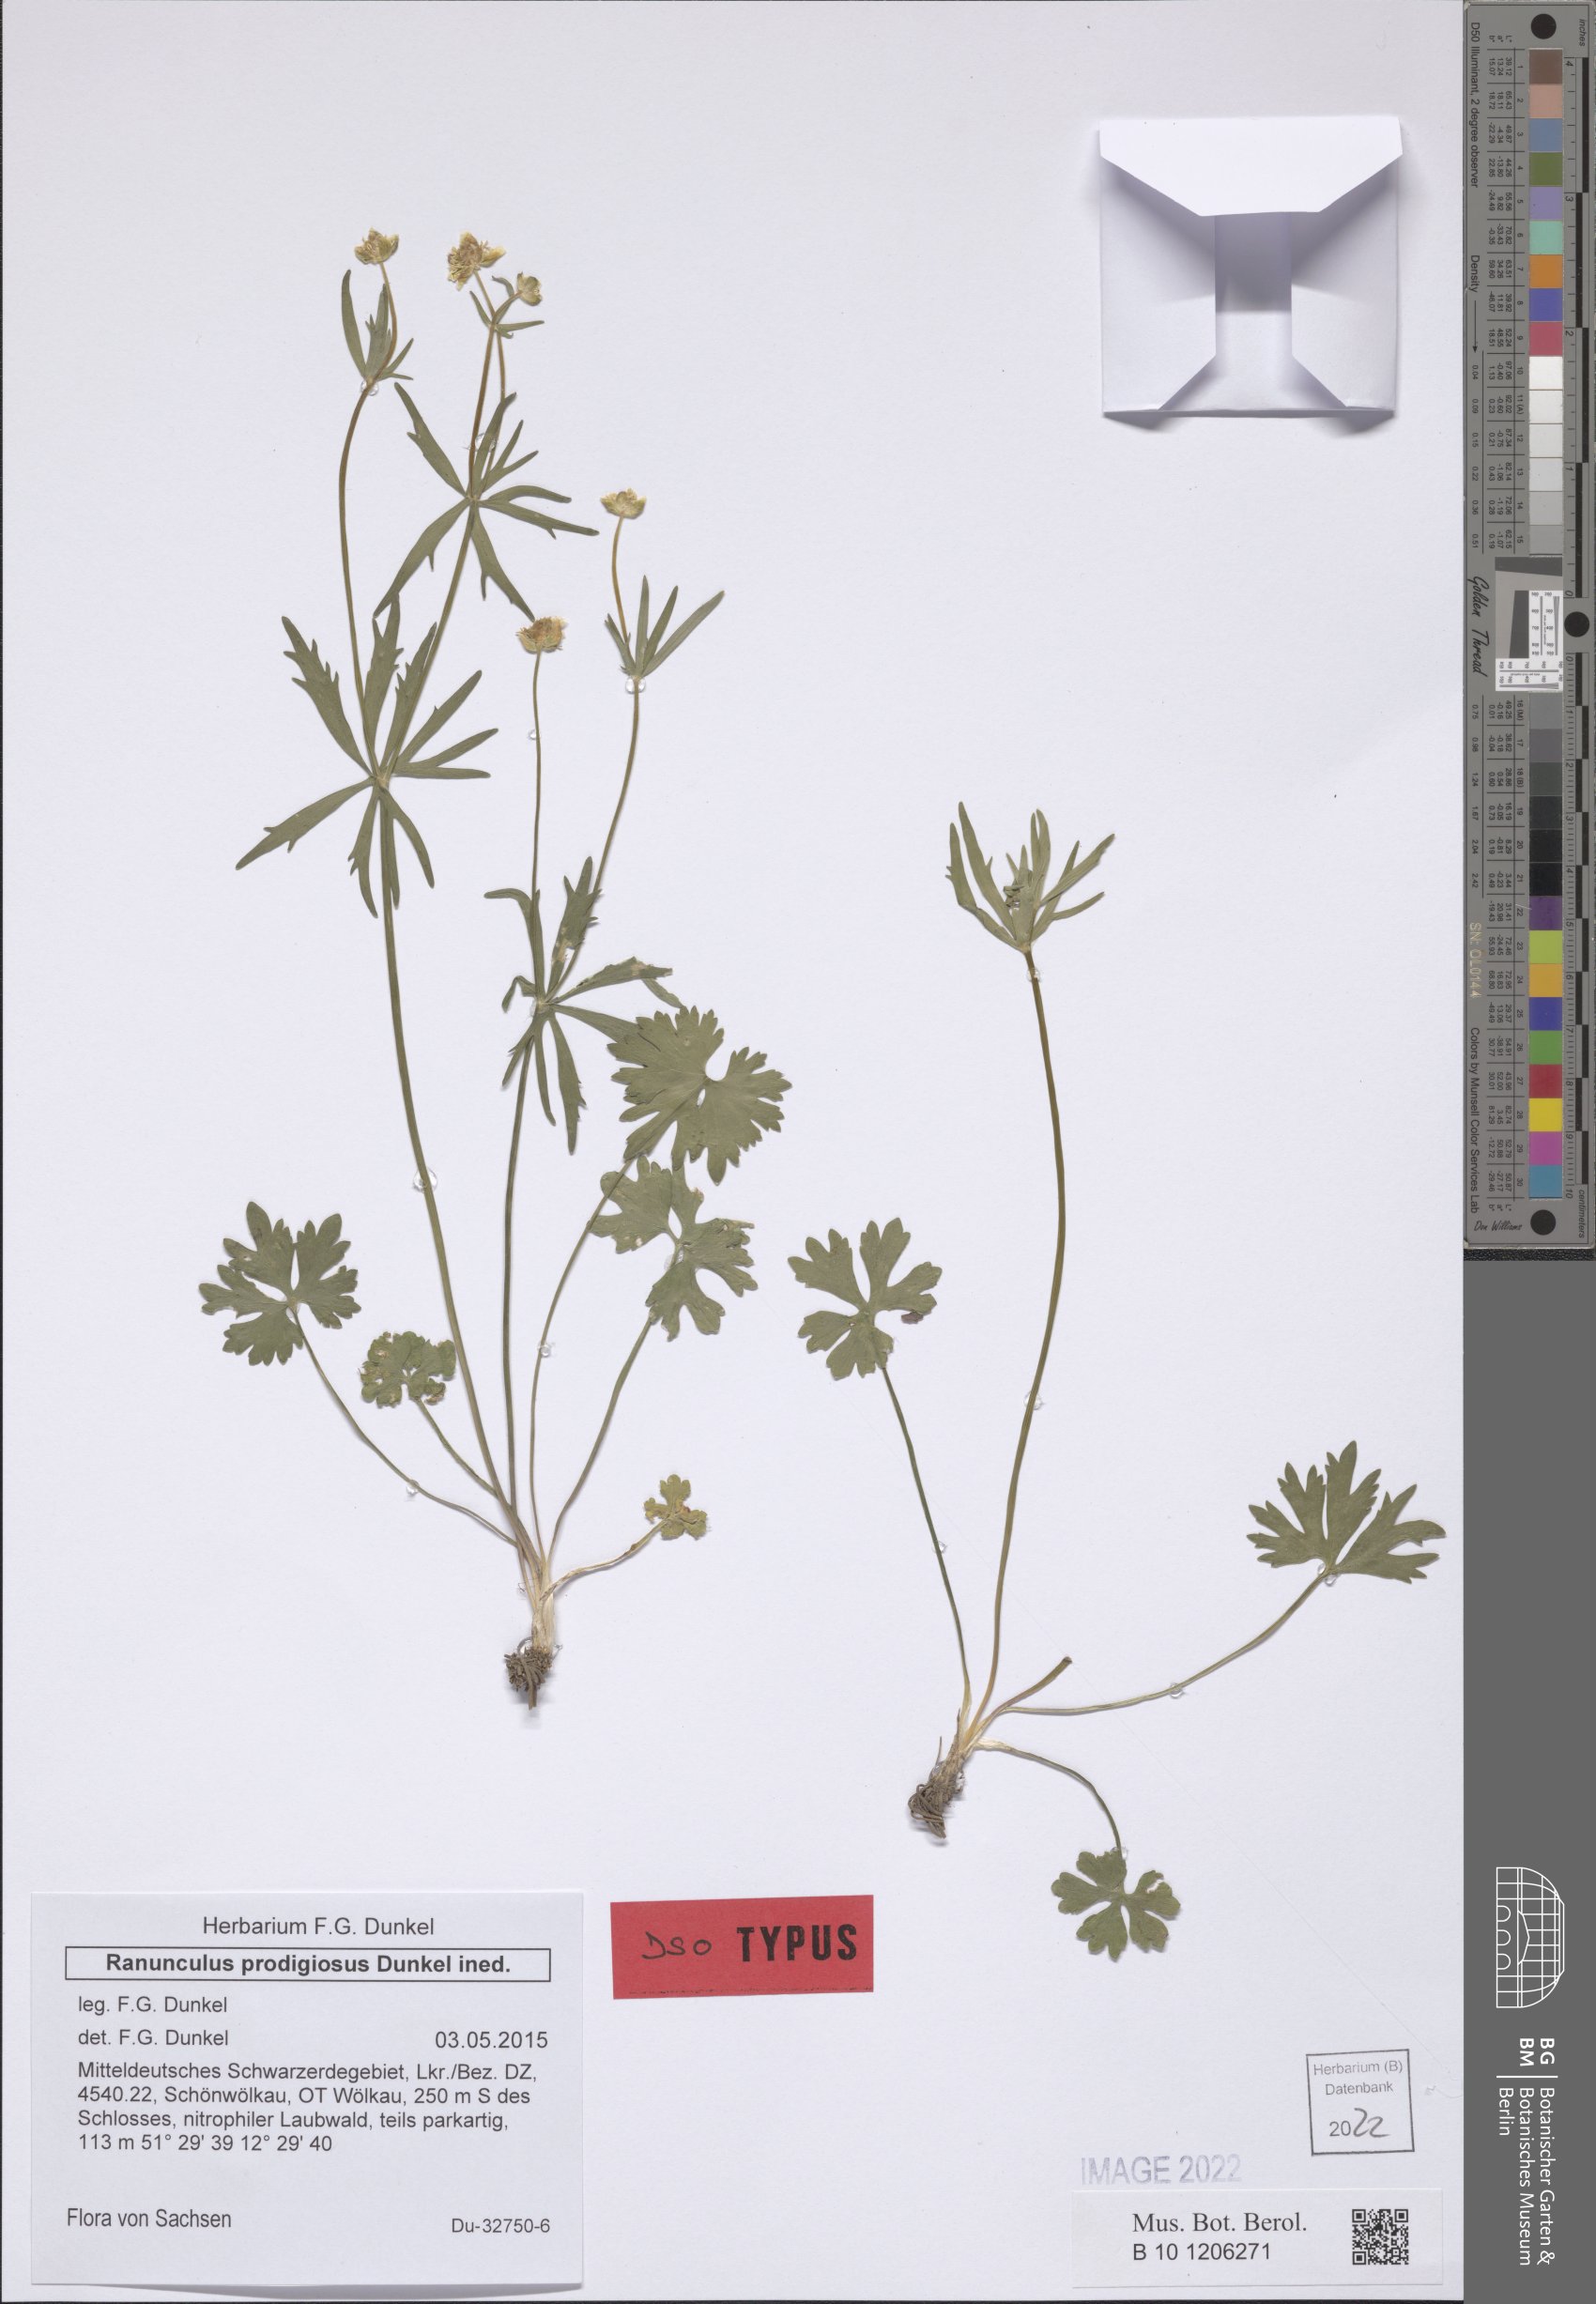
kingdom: Plantae
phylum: Tracheophyta
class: Magnoliopsida
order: Ranunculales
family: Ranunculaceae
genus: Ranunculus
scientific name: Ranunculus prodigiosus
